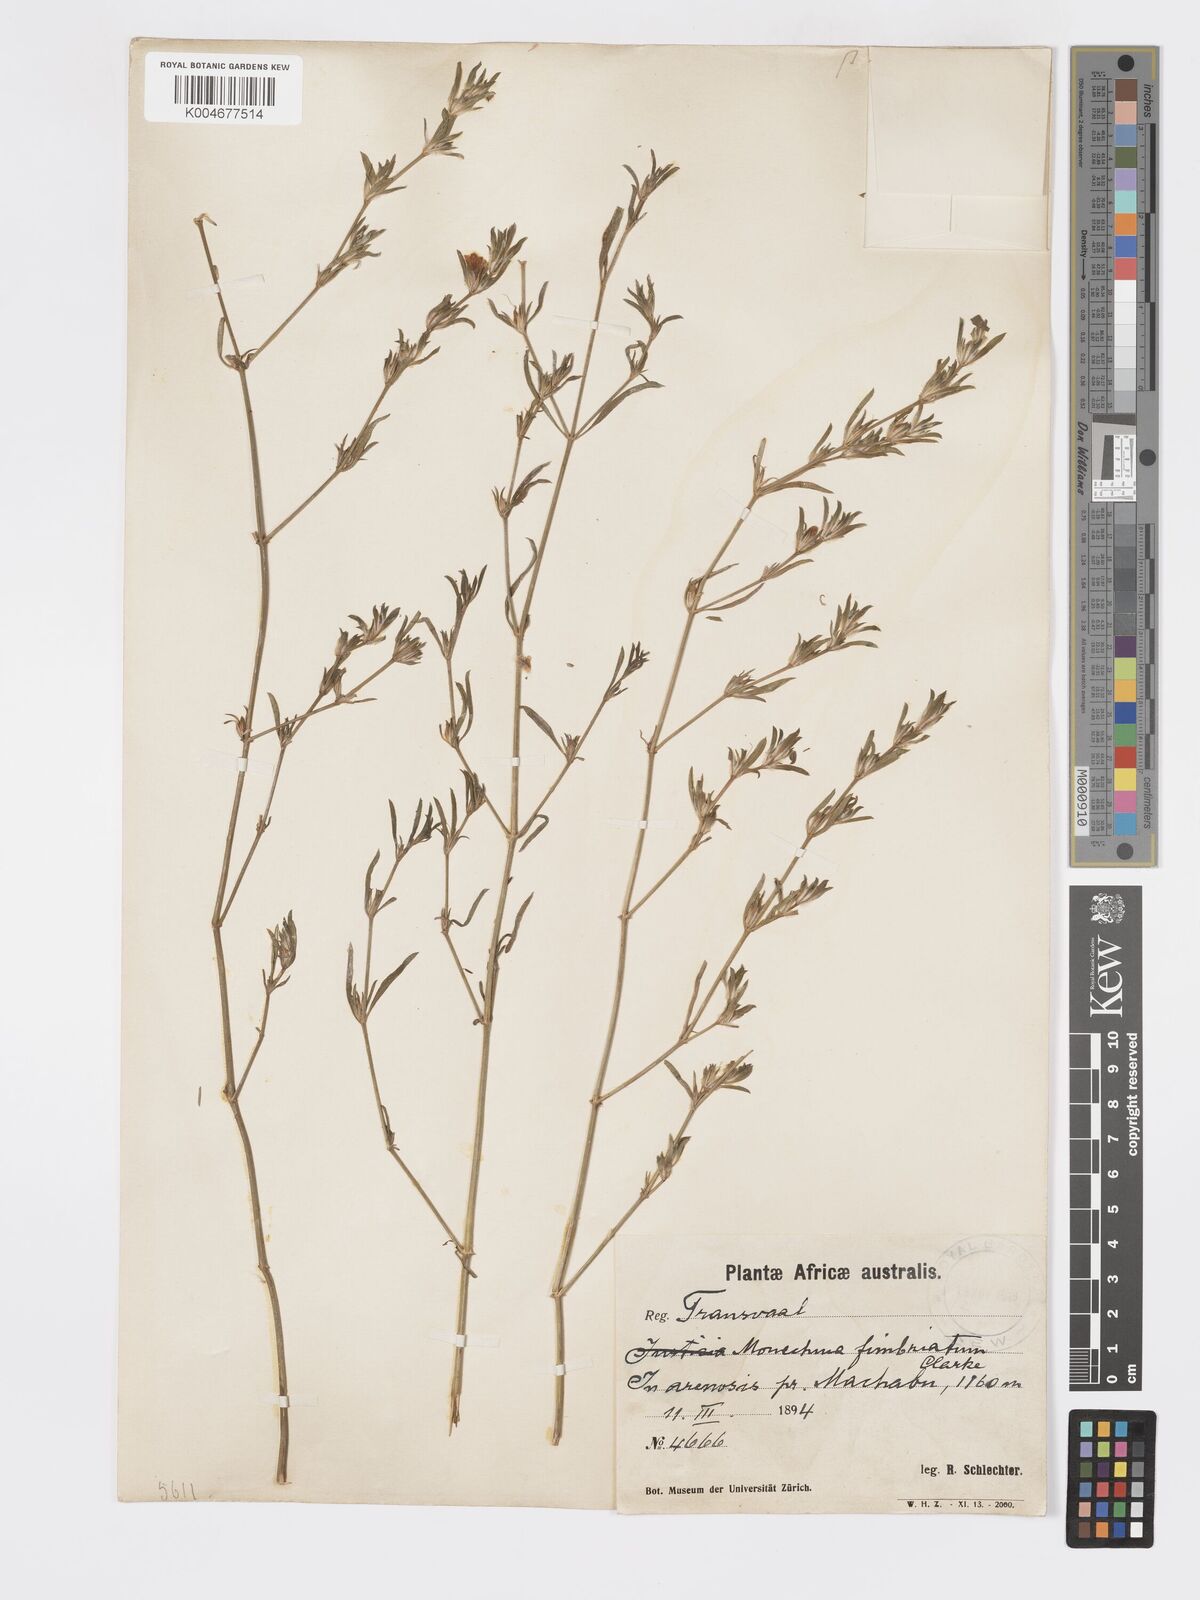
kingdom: Plantae
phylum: Tracheophyta
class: Magnoliopsida
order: Lamiales
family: Acanthaceae
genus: Pogonospermum
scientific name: Pogonospermum
